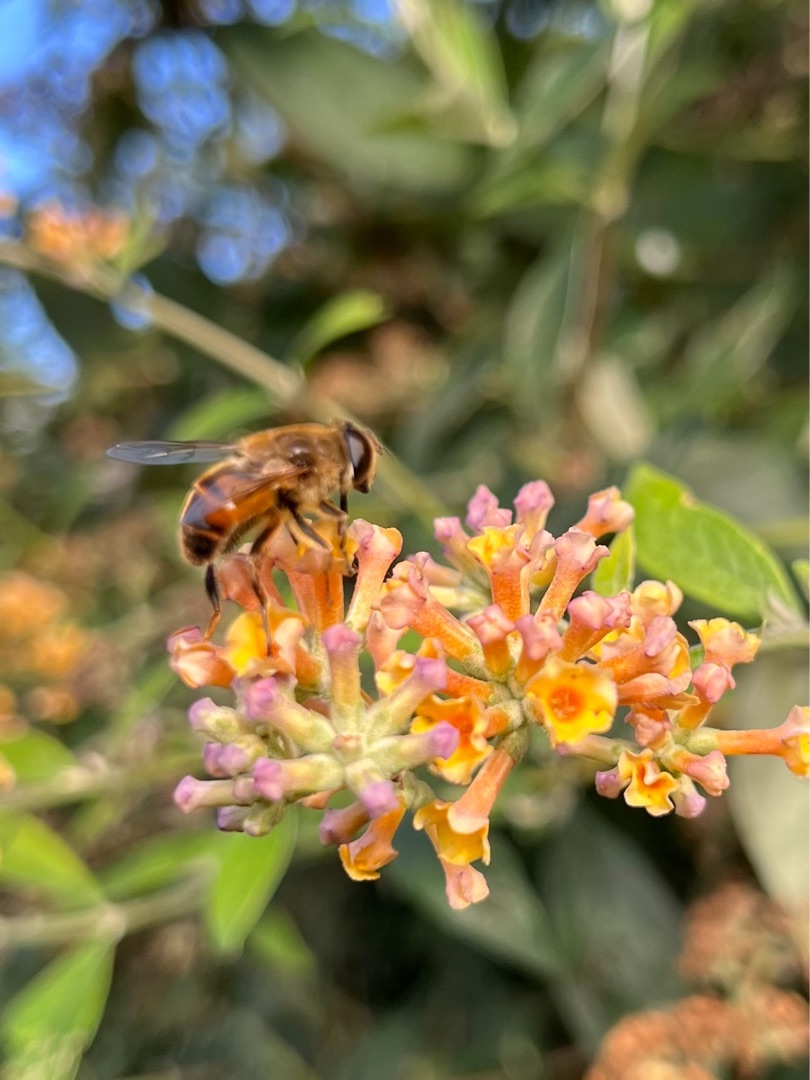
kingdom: Animalia
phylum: Arthropoda
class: Insecta
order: Diptera
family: Syrphidae
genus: Eristalis
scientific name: Eristalis tenax
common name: Droneflue
